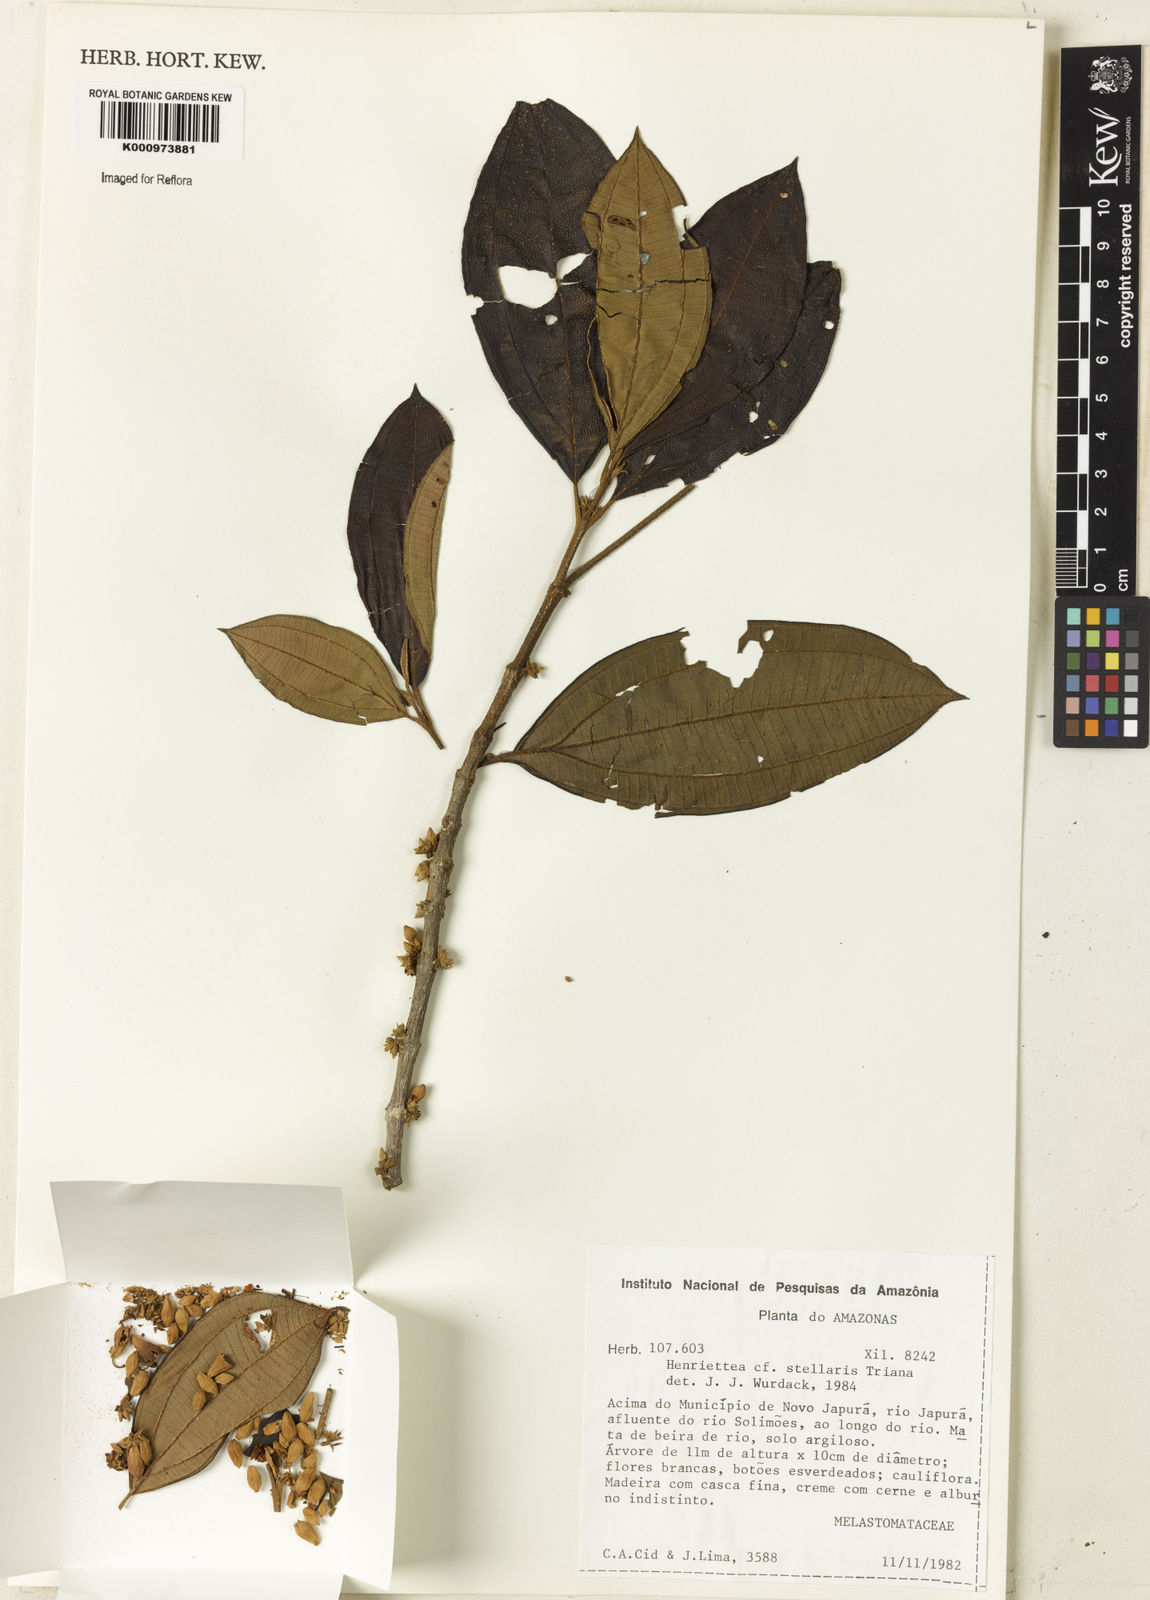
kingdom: Plantae
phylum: Tracheophyta
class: Magnoliopsida
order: Myrtales
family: Melastomataceae
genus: Henriettea
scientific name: Henriettea stellaris
